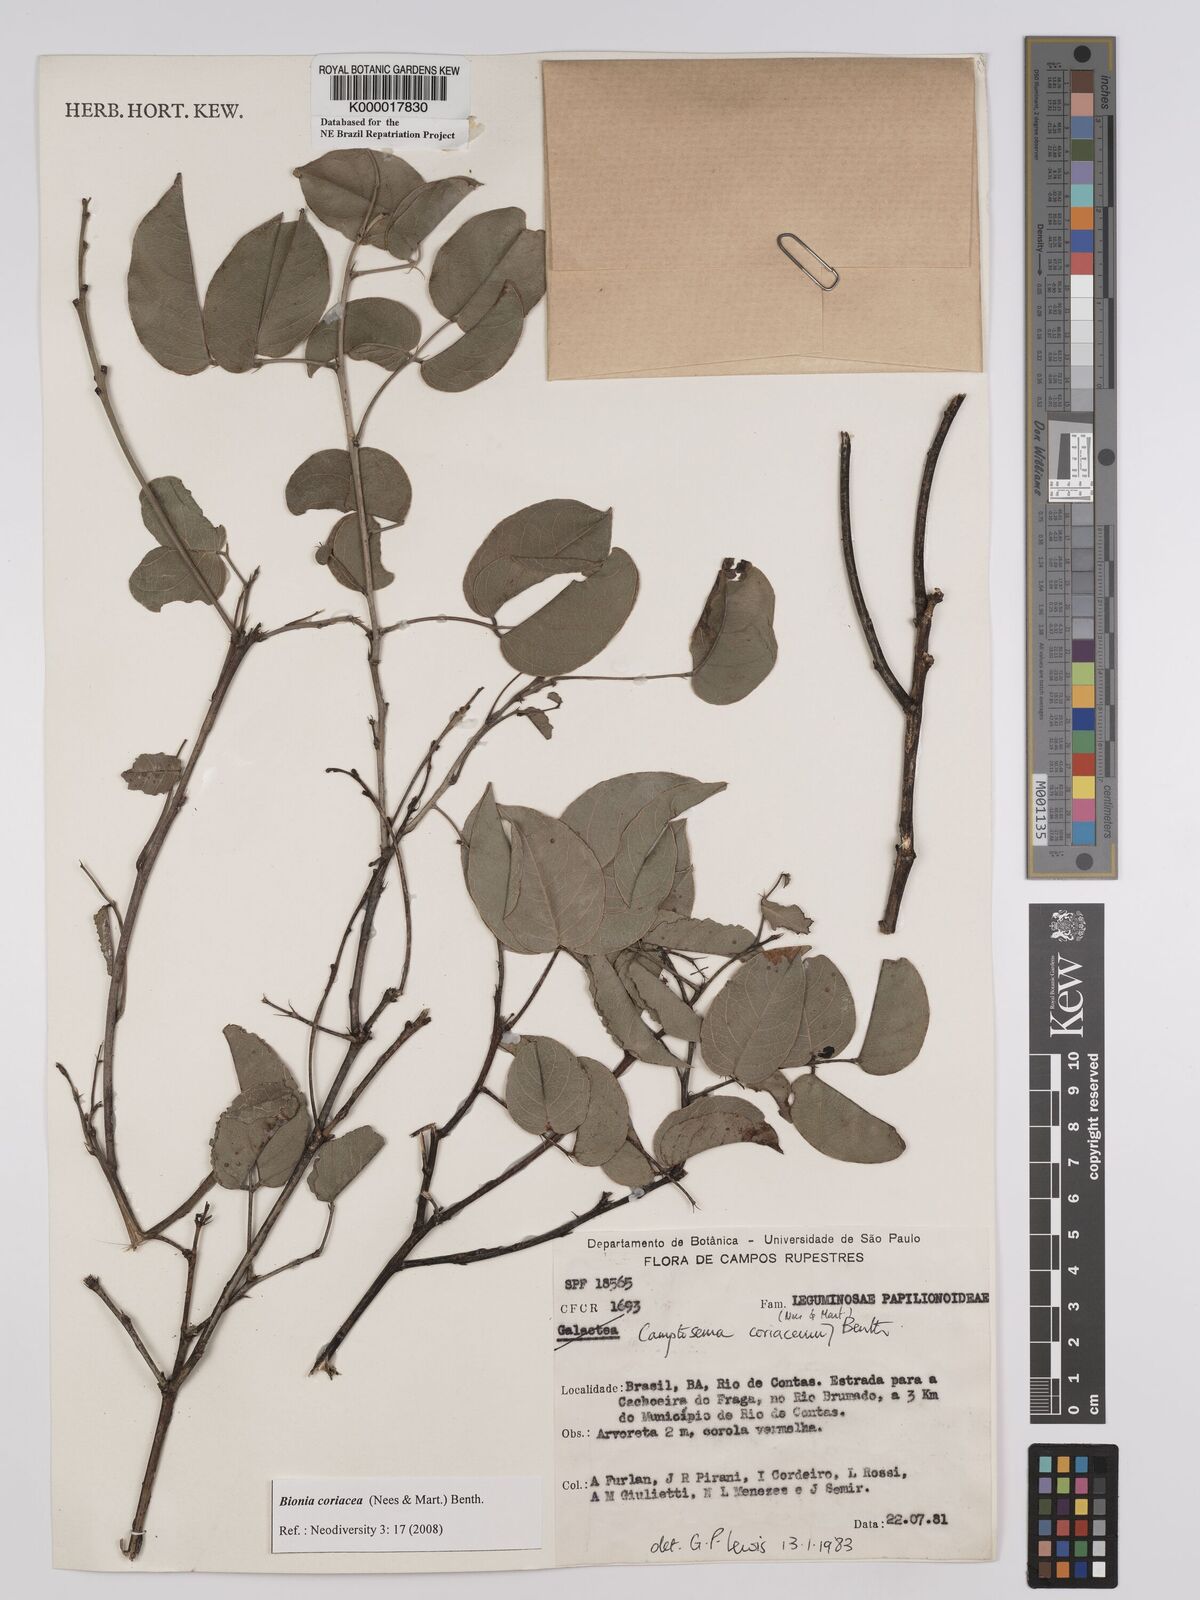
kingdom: Plantae
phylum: Tracheophyta
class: Magnoliopsida
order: Fabales
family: Fabaceae
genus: Camptosema
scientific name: Camptosema coriaceum
